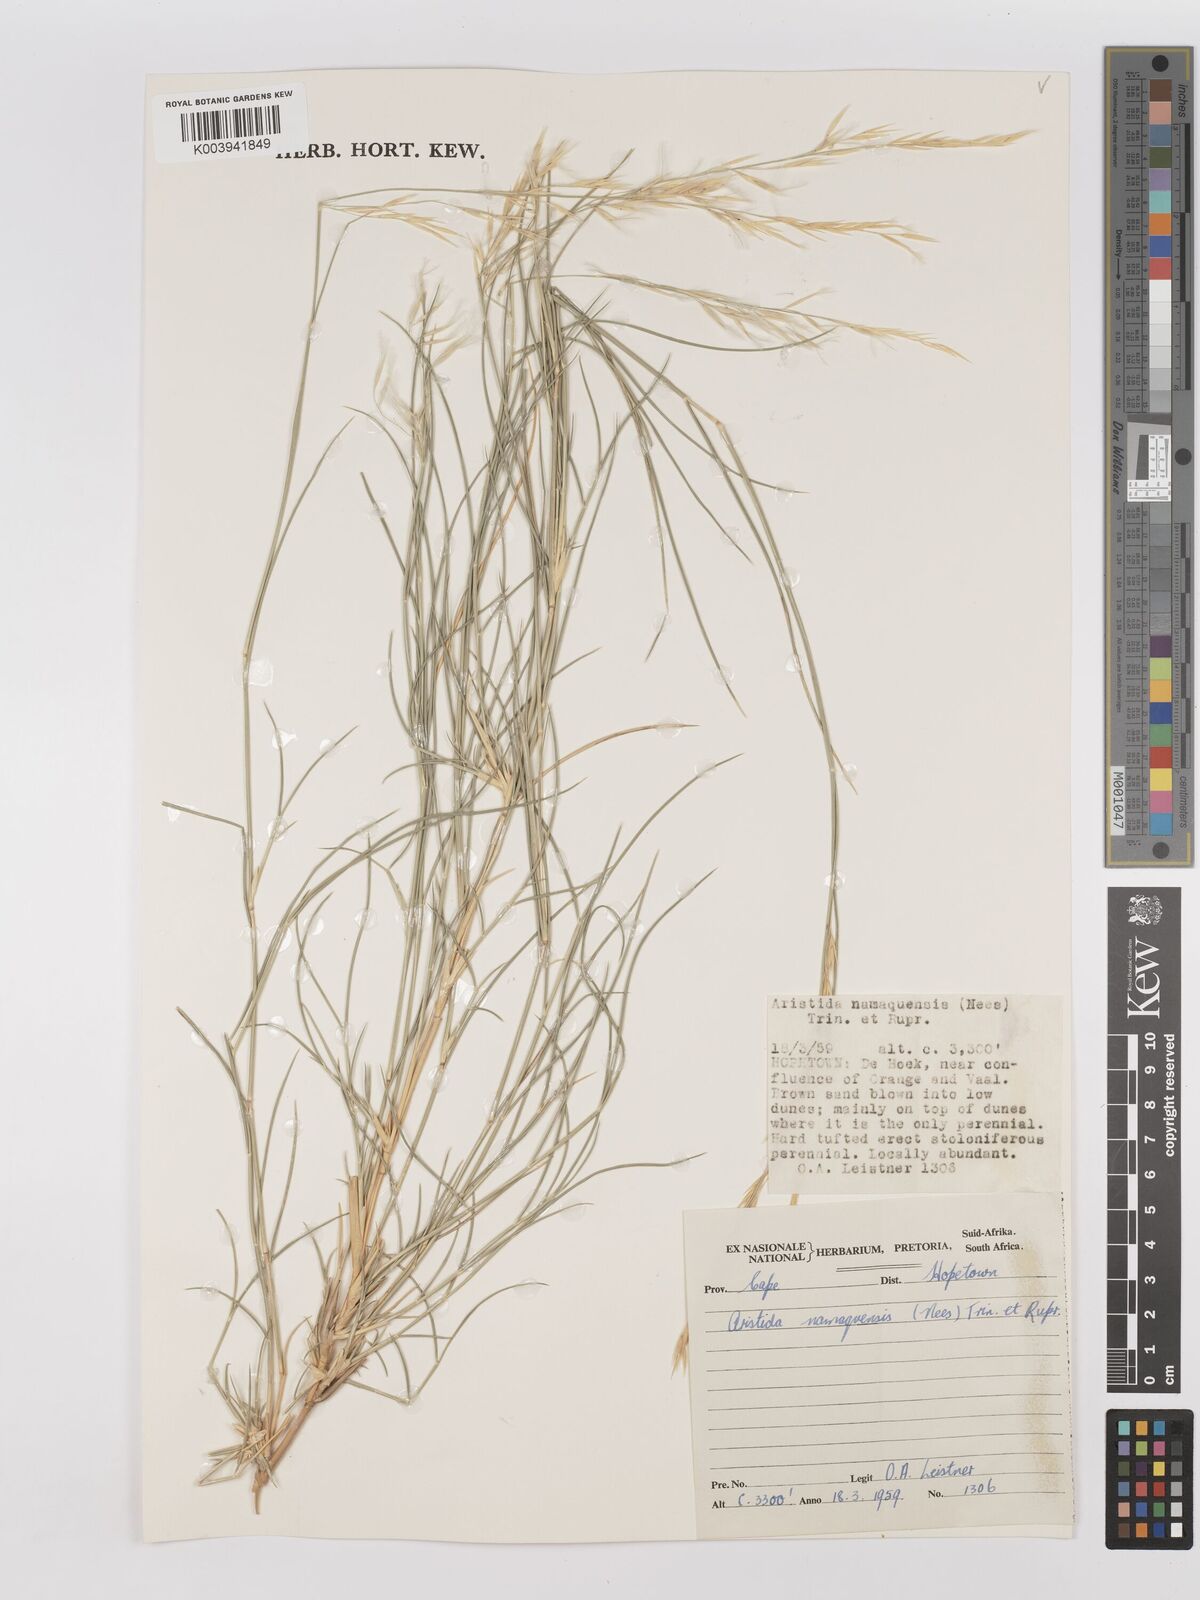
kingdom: Plantae
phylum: Tracheophyta
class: Liliopsida
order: Poales
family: Poaceae
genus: Stipagrostis
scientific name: Stipagrostis namaquensis
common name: River bushman grass
